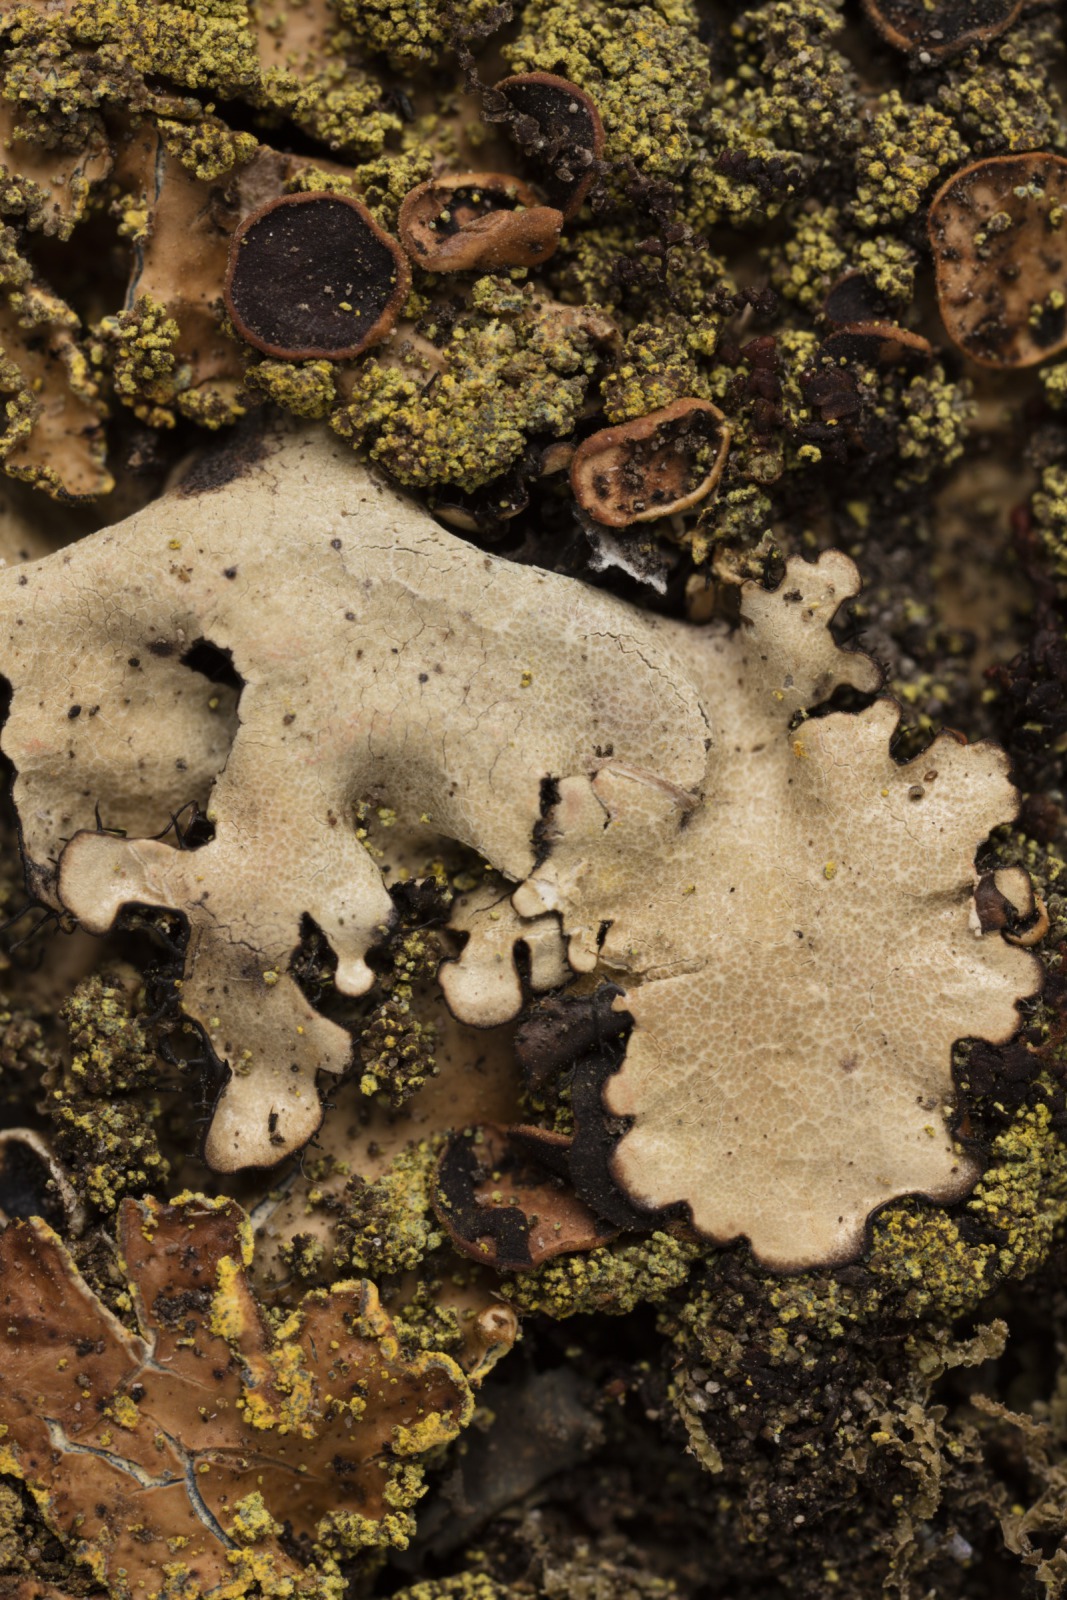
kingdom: Fungi
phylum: Ascomycota
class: Lecanoromycetes
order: Peltigerales
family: Lobariaceae
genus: Pseudocyphellaria
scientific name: Pseudocyphellaria crocata
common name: Golden specklebelly
